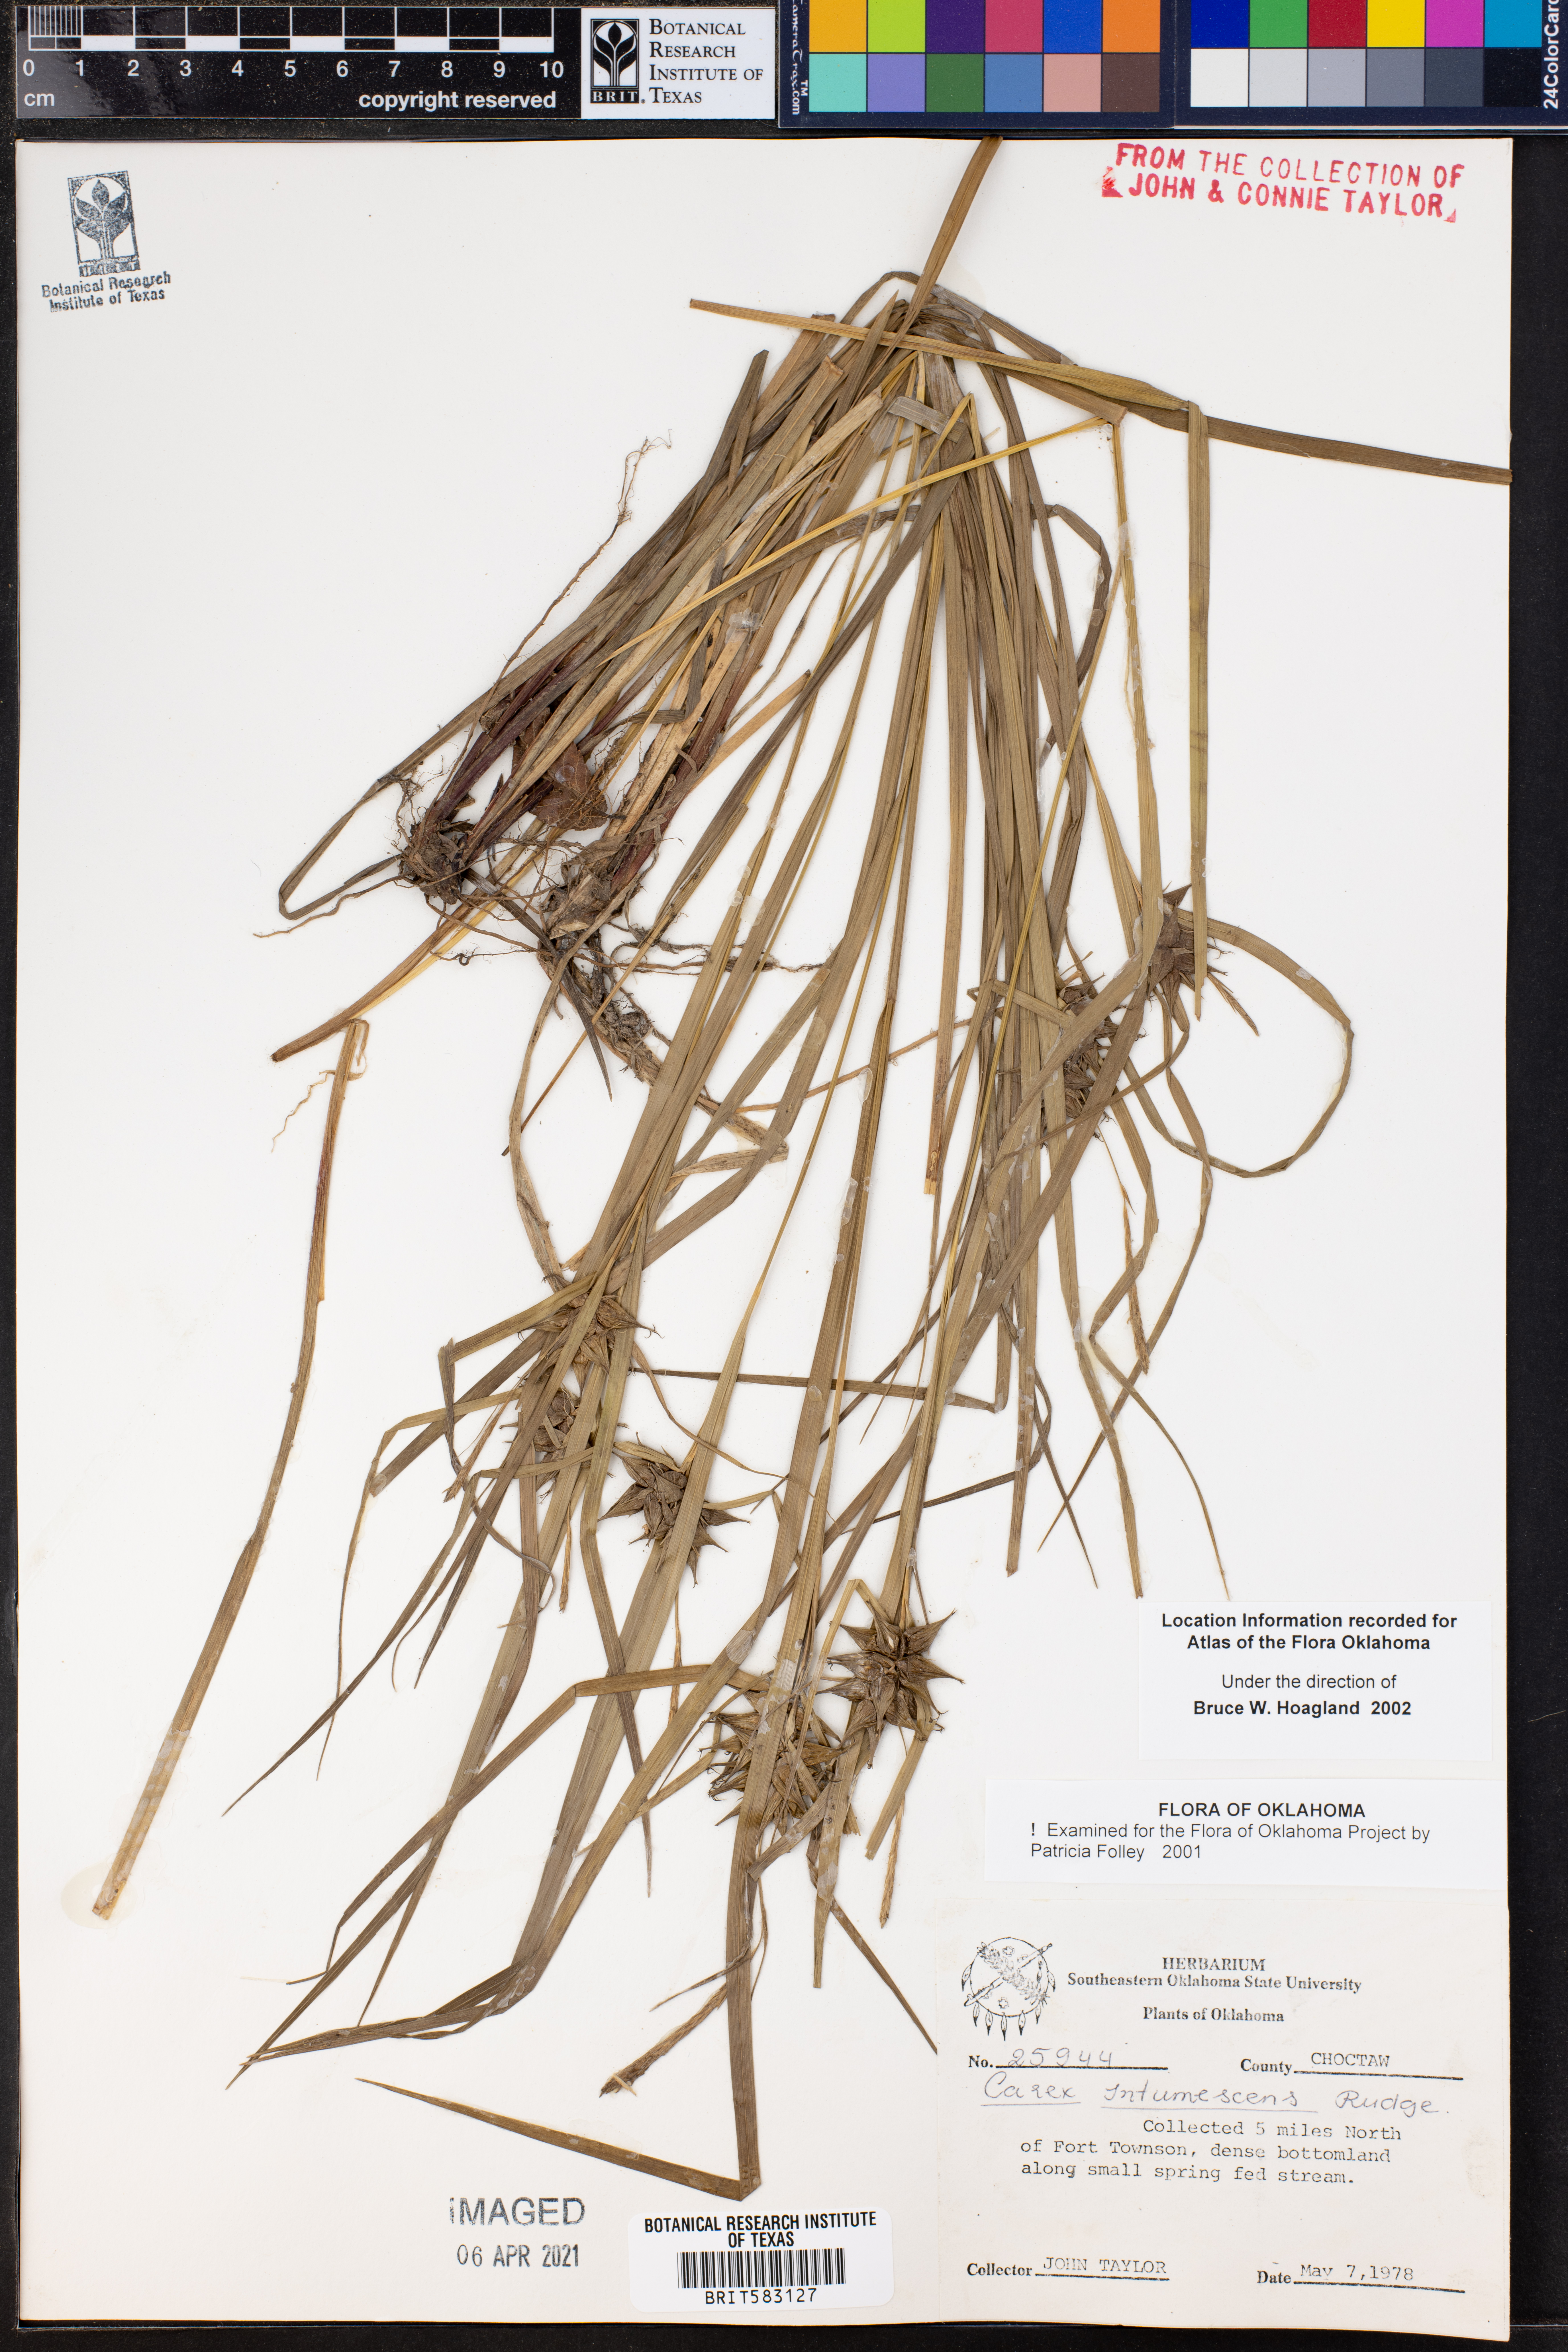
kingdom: Plantae
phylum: Tracheophyta
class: Liliopsida
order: Poales
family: Cyperaceae
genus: Carex
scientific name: Carex intumescens
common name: Greater bladder sedge
